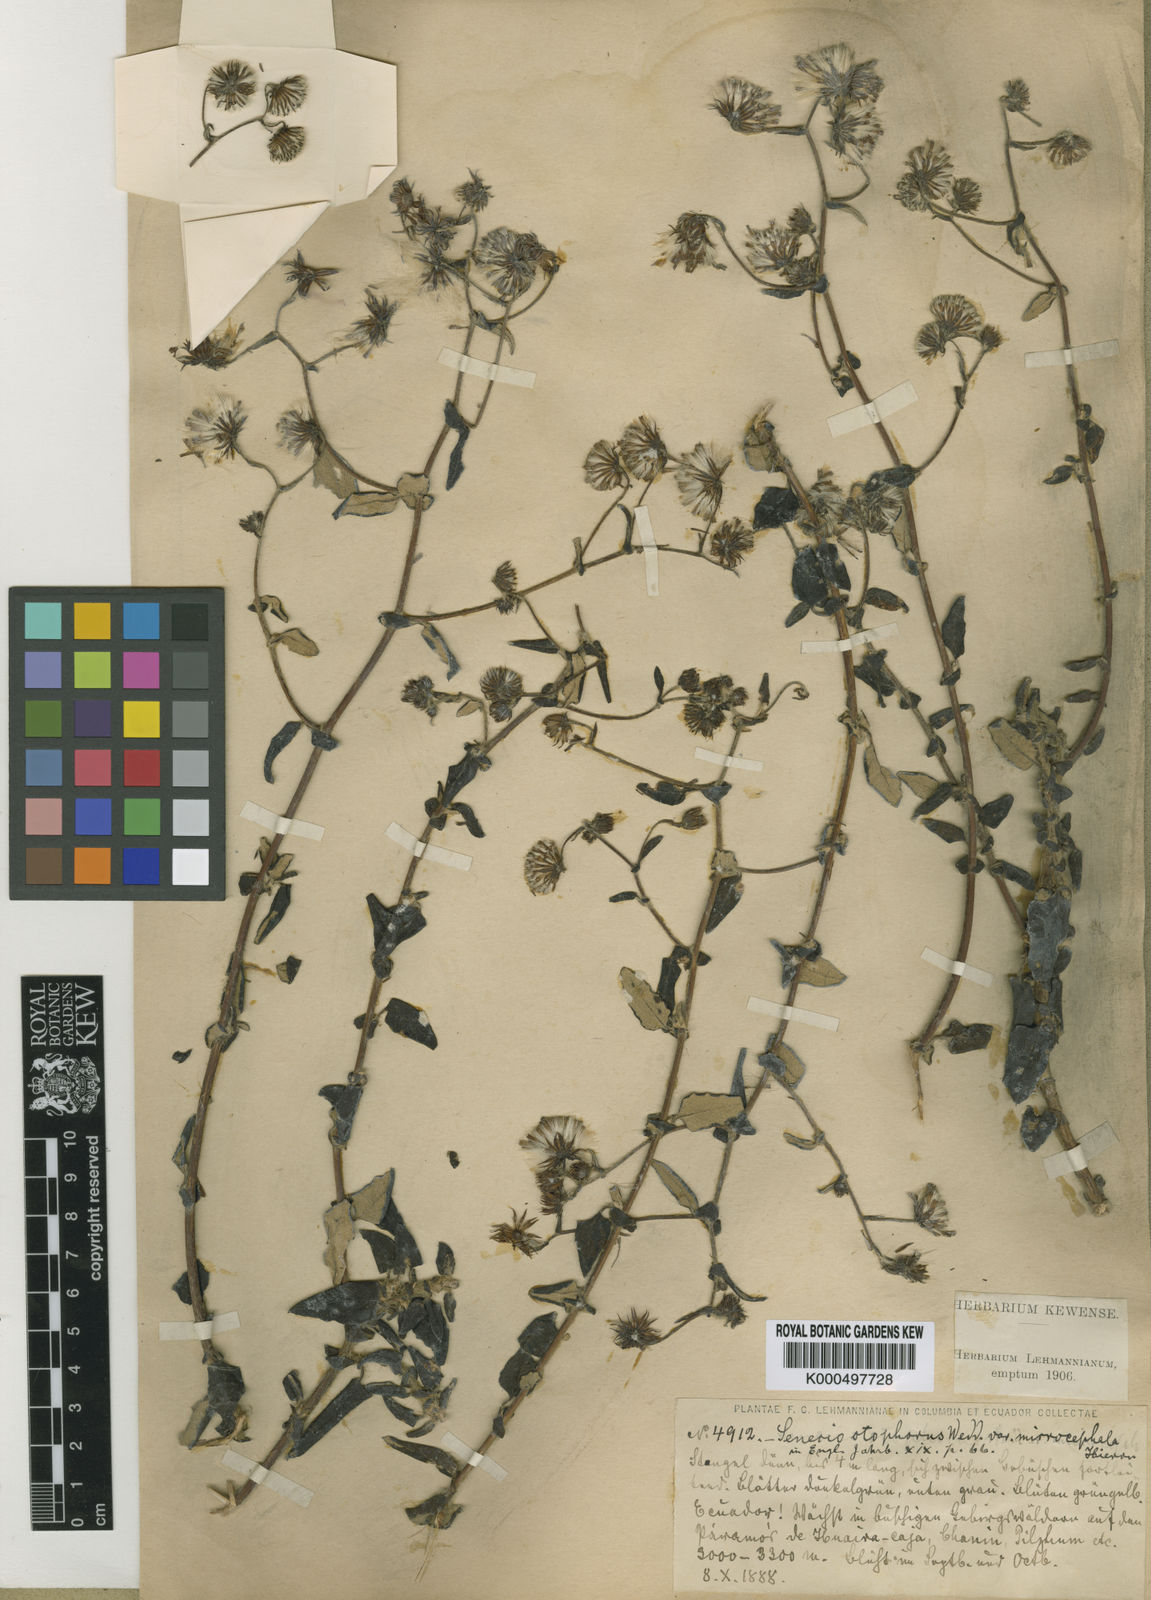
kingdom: Plantae
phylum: Tracheophyta
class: Magnoliopsida
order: Asterales
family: Asteraceae
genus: Aetheolaena
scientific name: Aetheolaena otophora
